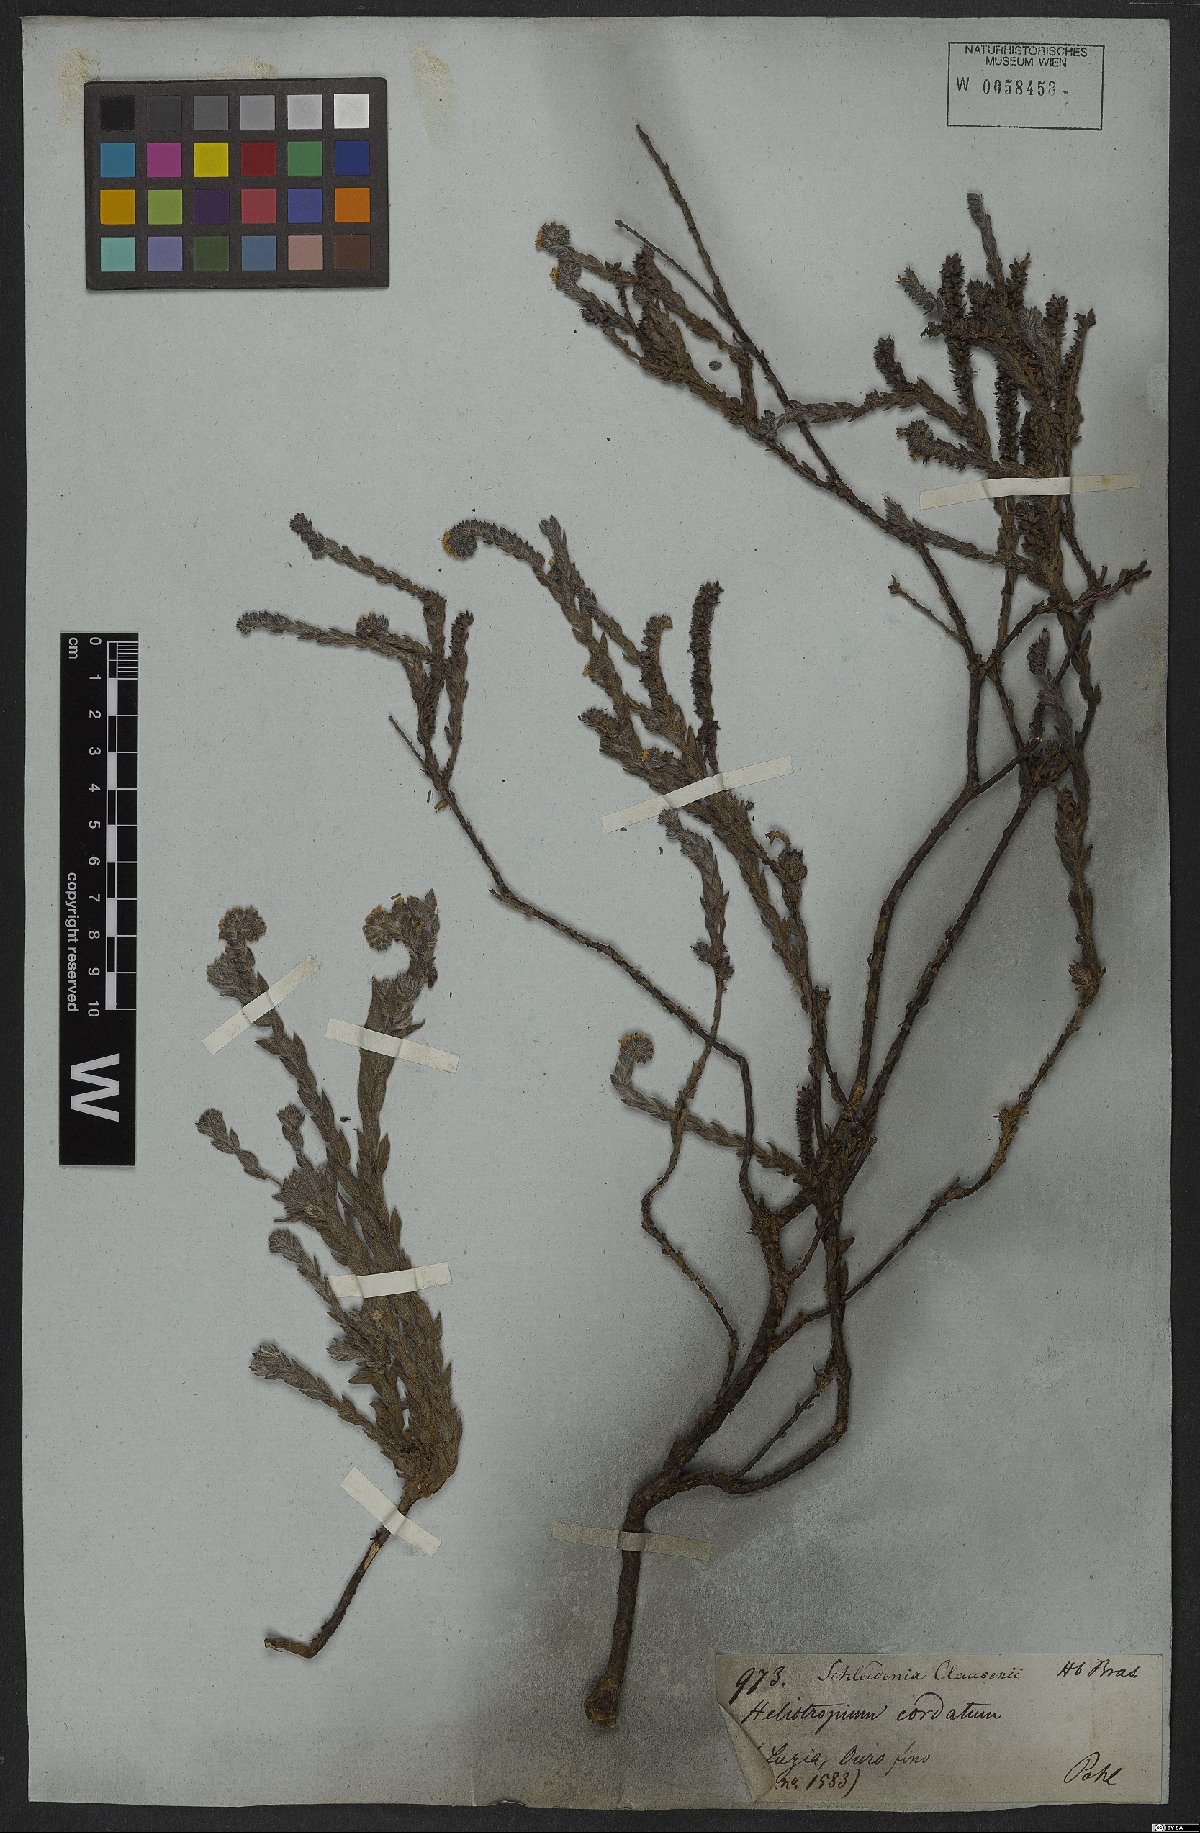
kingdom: Plantae
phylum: Tracheophyta
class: Magnoliopsida
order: Boraginales
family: Heliotropiaceae
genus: Euploca
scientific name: Euploca salicoides
